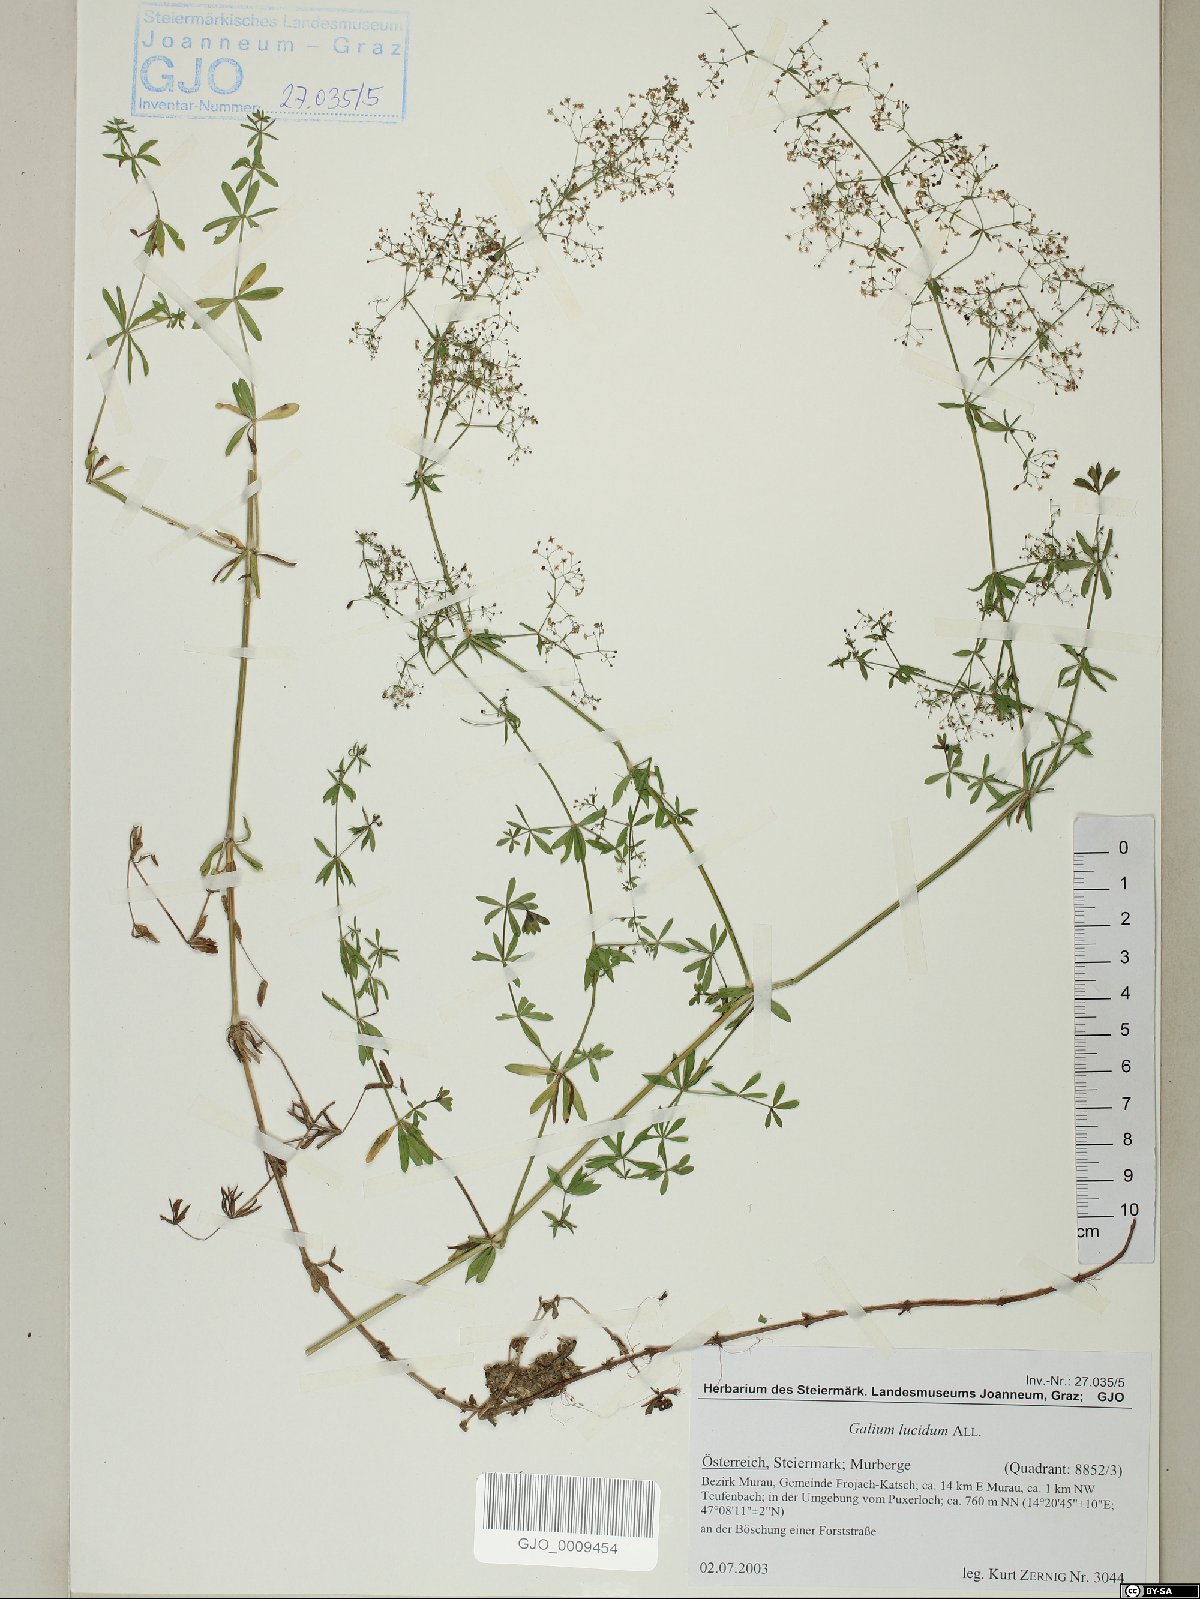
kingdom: Plantae
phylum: Tracheophyta
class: Magnoliopsida
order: Gentianales
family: Rubiaceae
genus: Galium
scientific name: Galium lucidum
